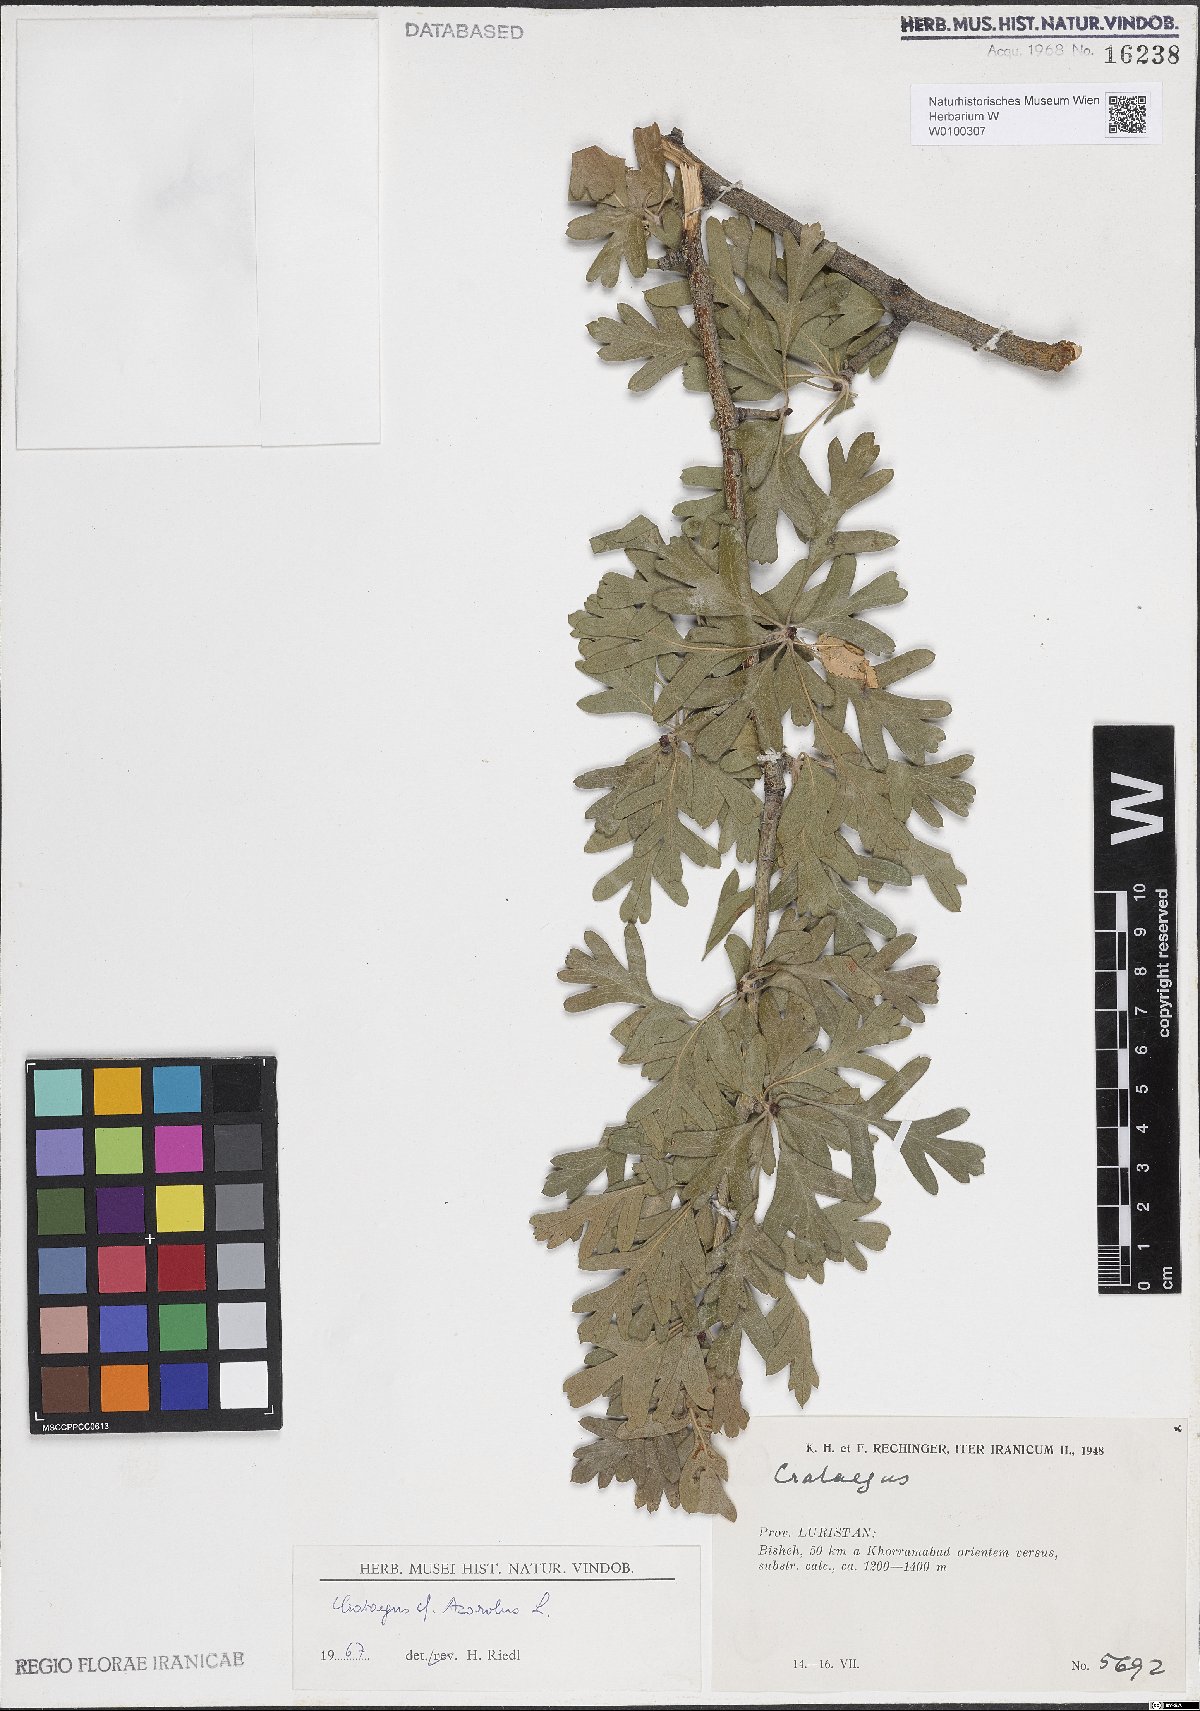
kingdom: Plantae
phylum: Tracheophyta
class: Magnoliopsida
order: Rosales
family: Rosaceae
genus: Crataegus
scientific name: Crataegus azarolus
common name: Azarole
